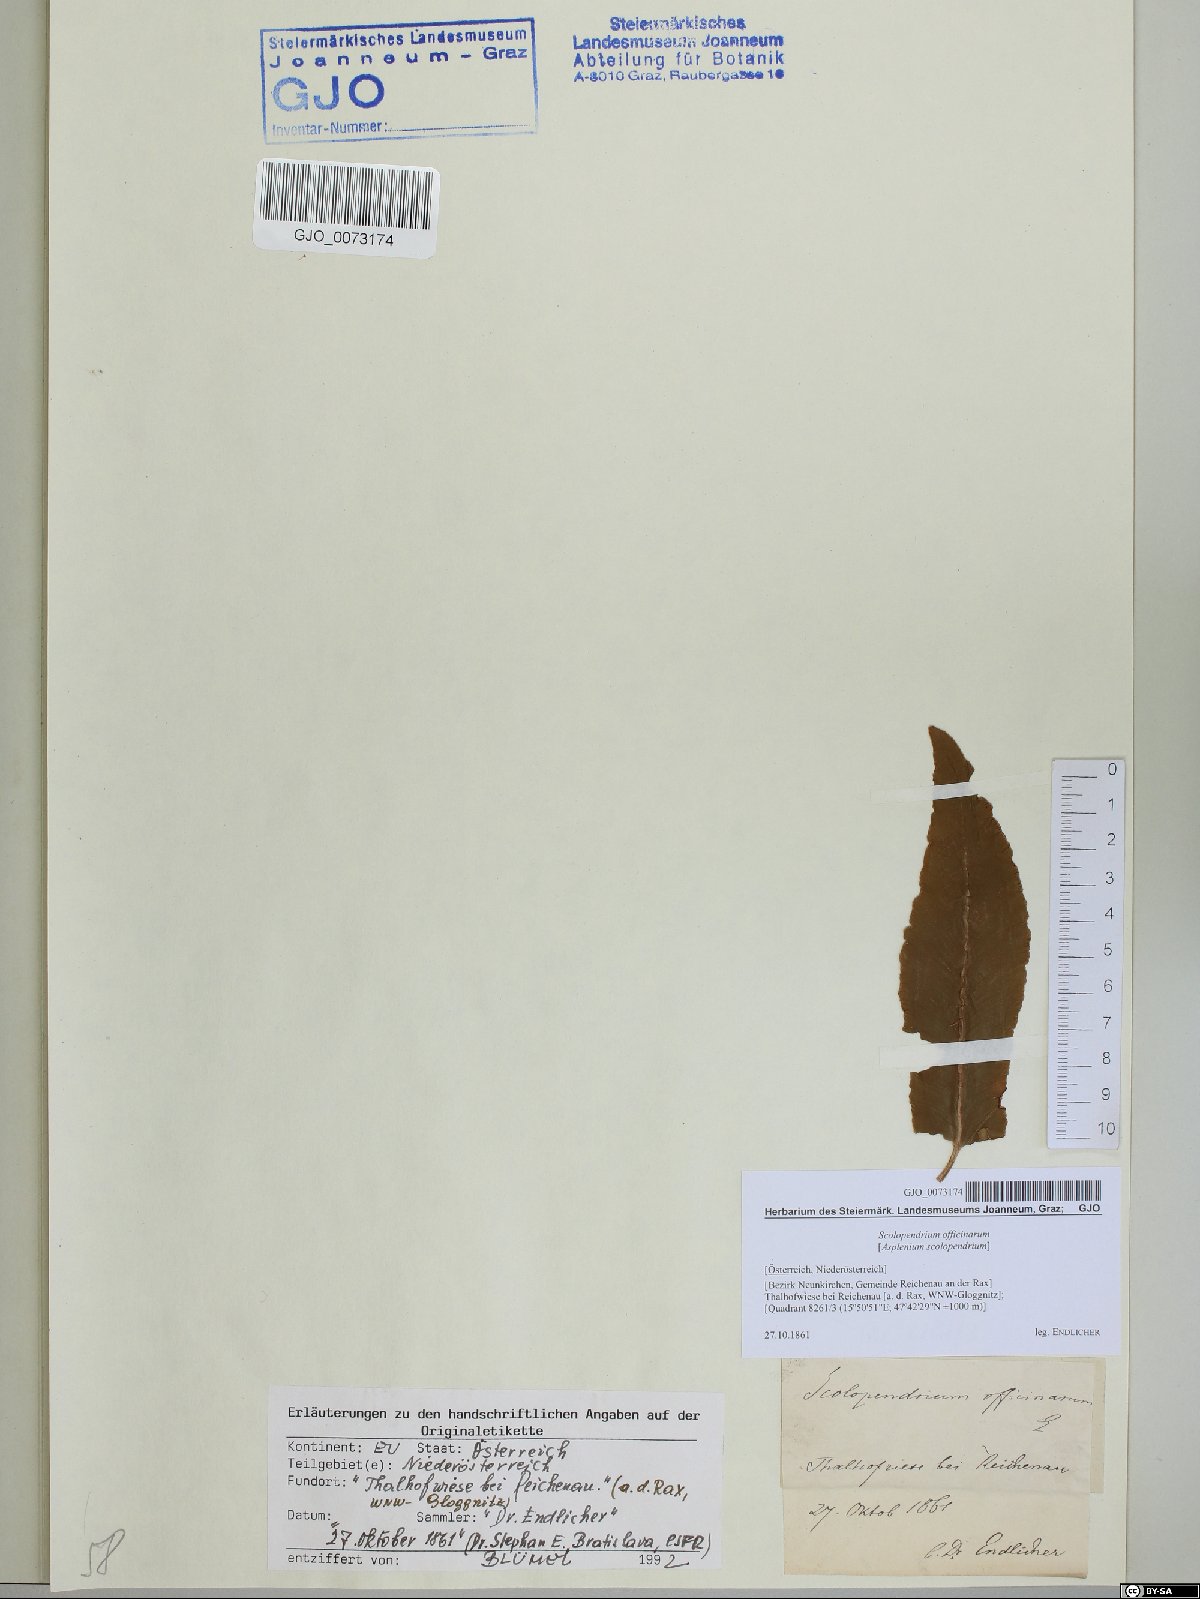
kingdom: Plantae
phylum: Tracheophyta
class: Polypodiopsida
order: Polypodiales
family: Aspleniaceae
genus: Asplenium
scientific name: Asplenium scolopendrium
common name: Hart's-tongue fern
